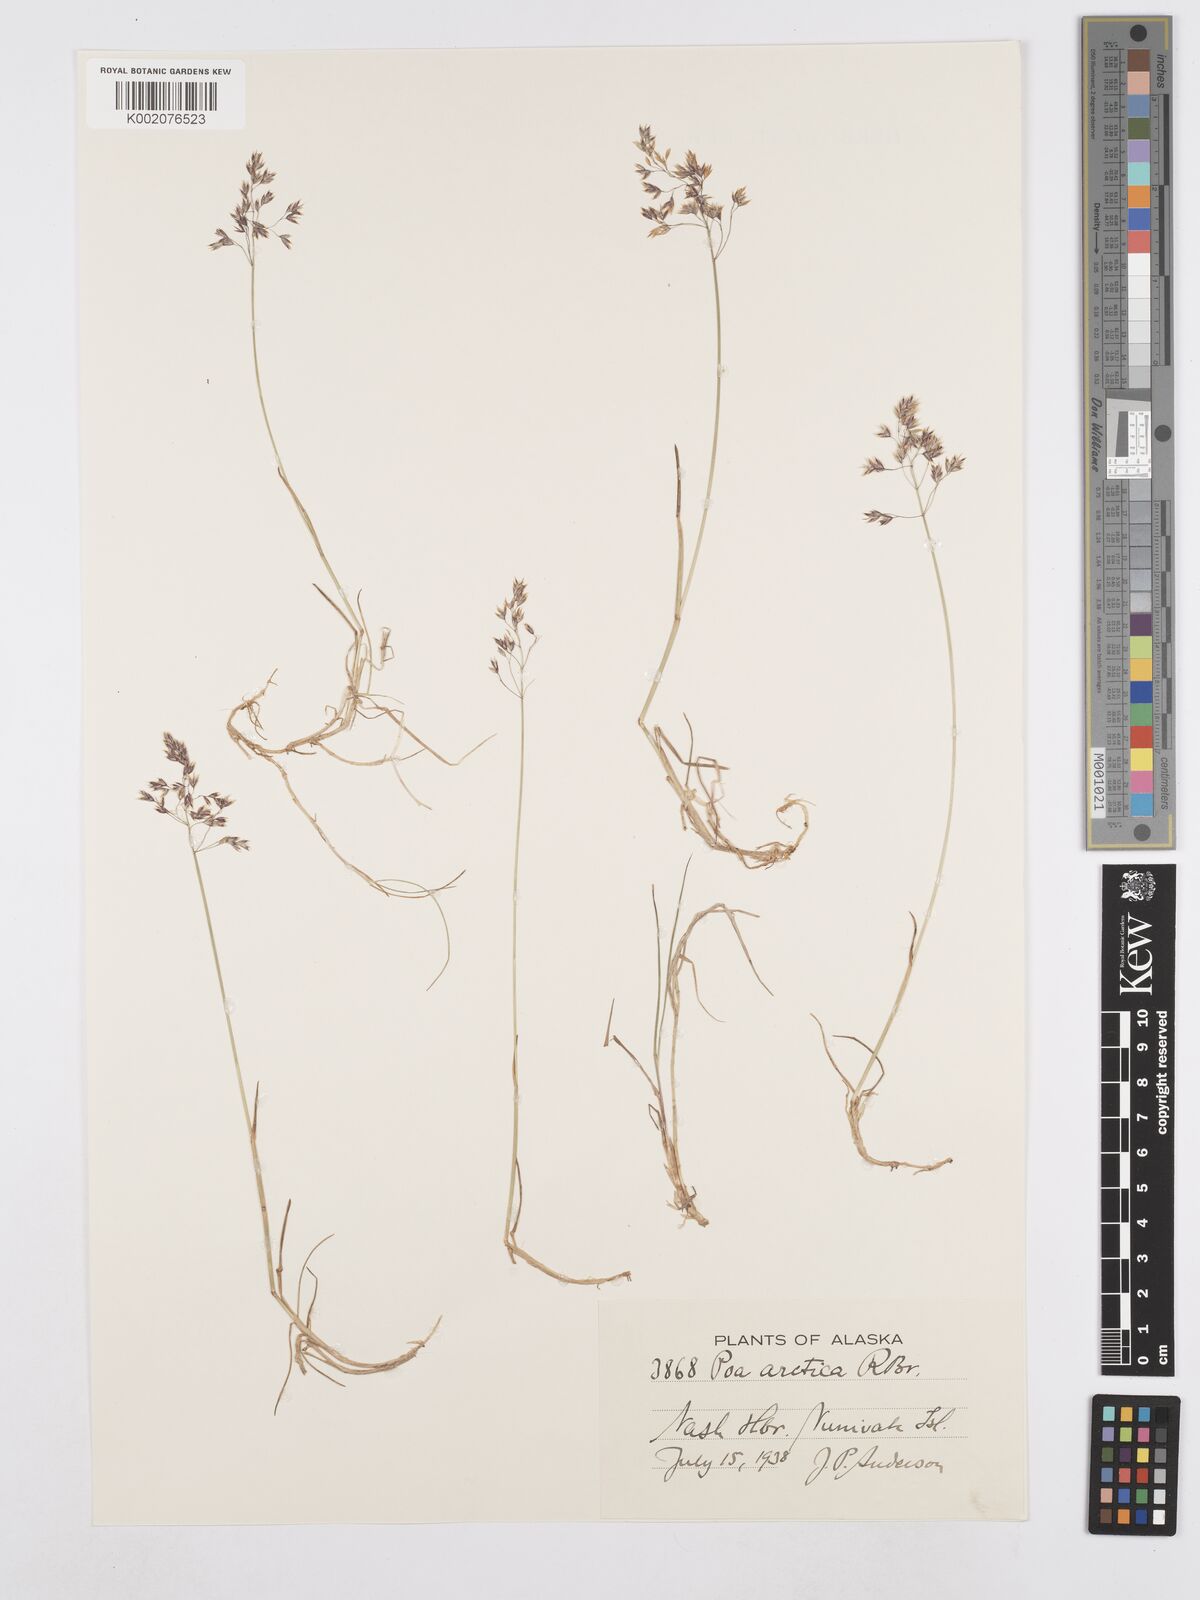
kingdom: Plantae
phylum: Tracheophyta
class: Liliopsida
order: Poales
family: Poaceae
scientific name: Poaceae
